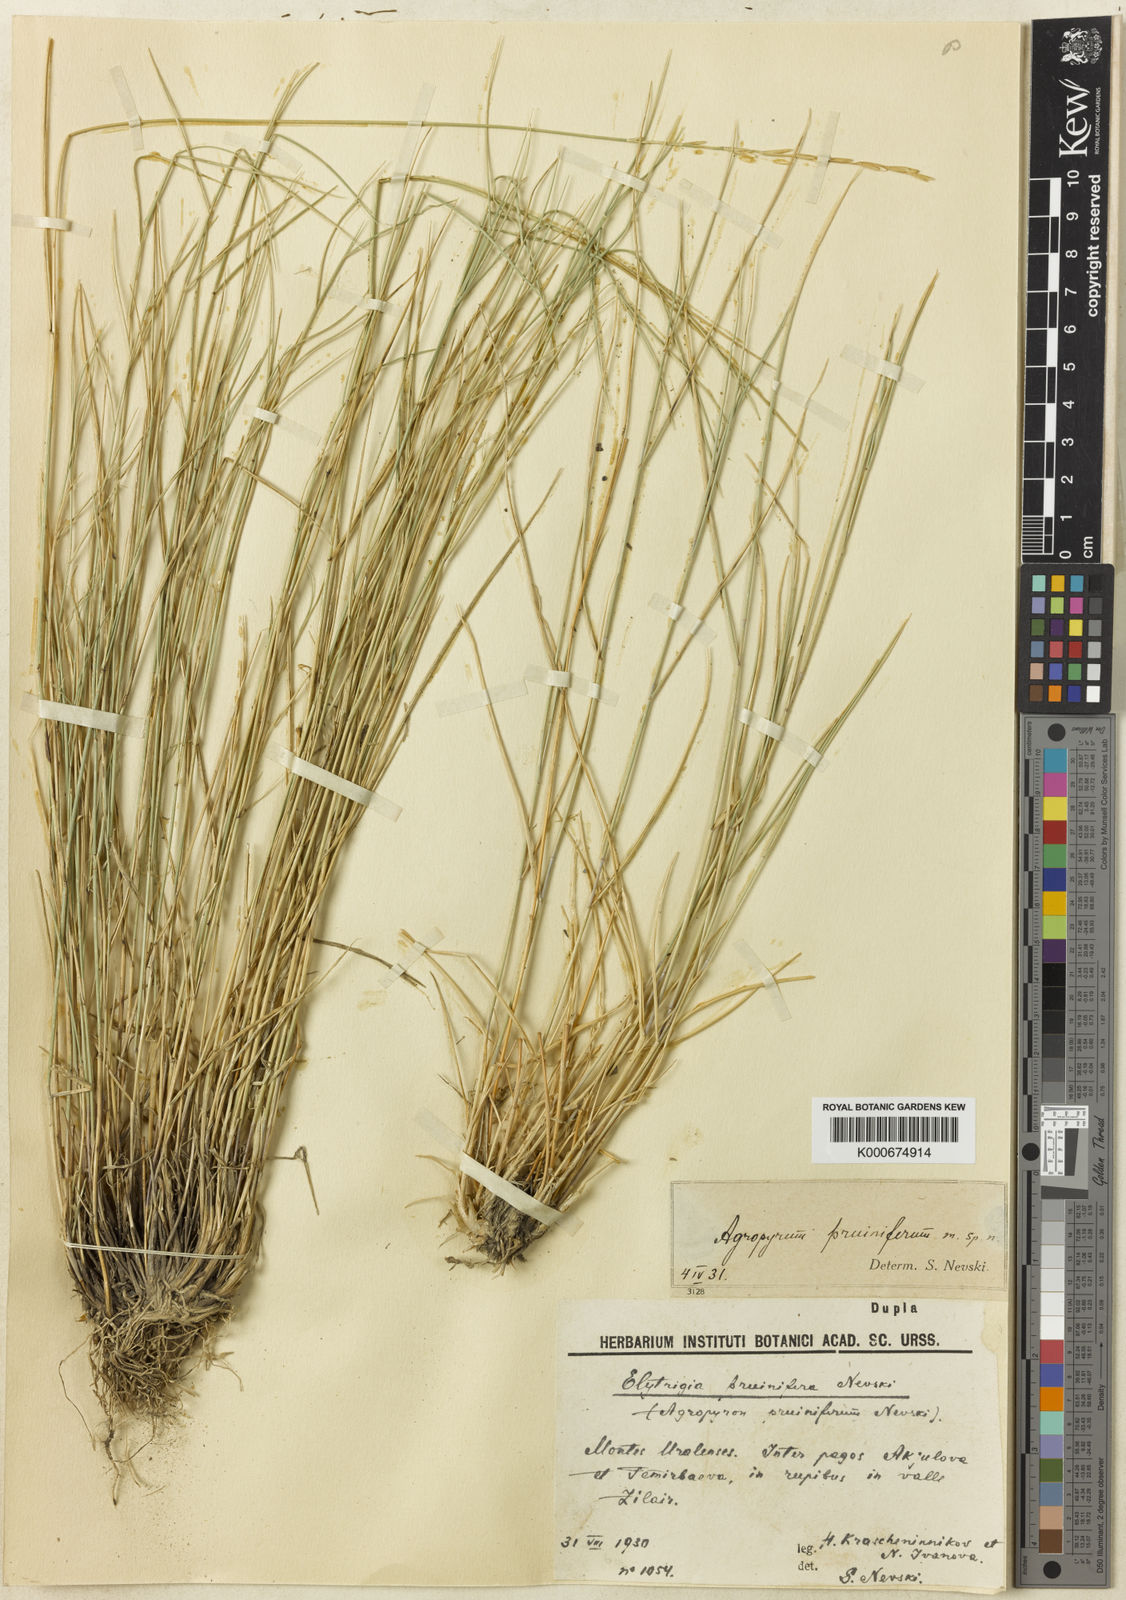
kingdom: Plantae
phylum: Tracheophyta
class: Liliopsida
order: Poales
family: Poaceae
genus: Elymus
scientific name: Elymus
